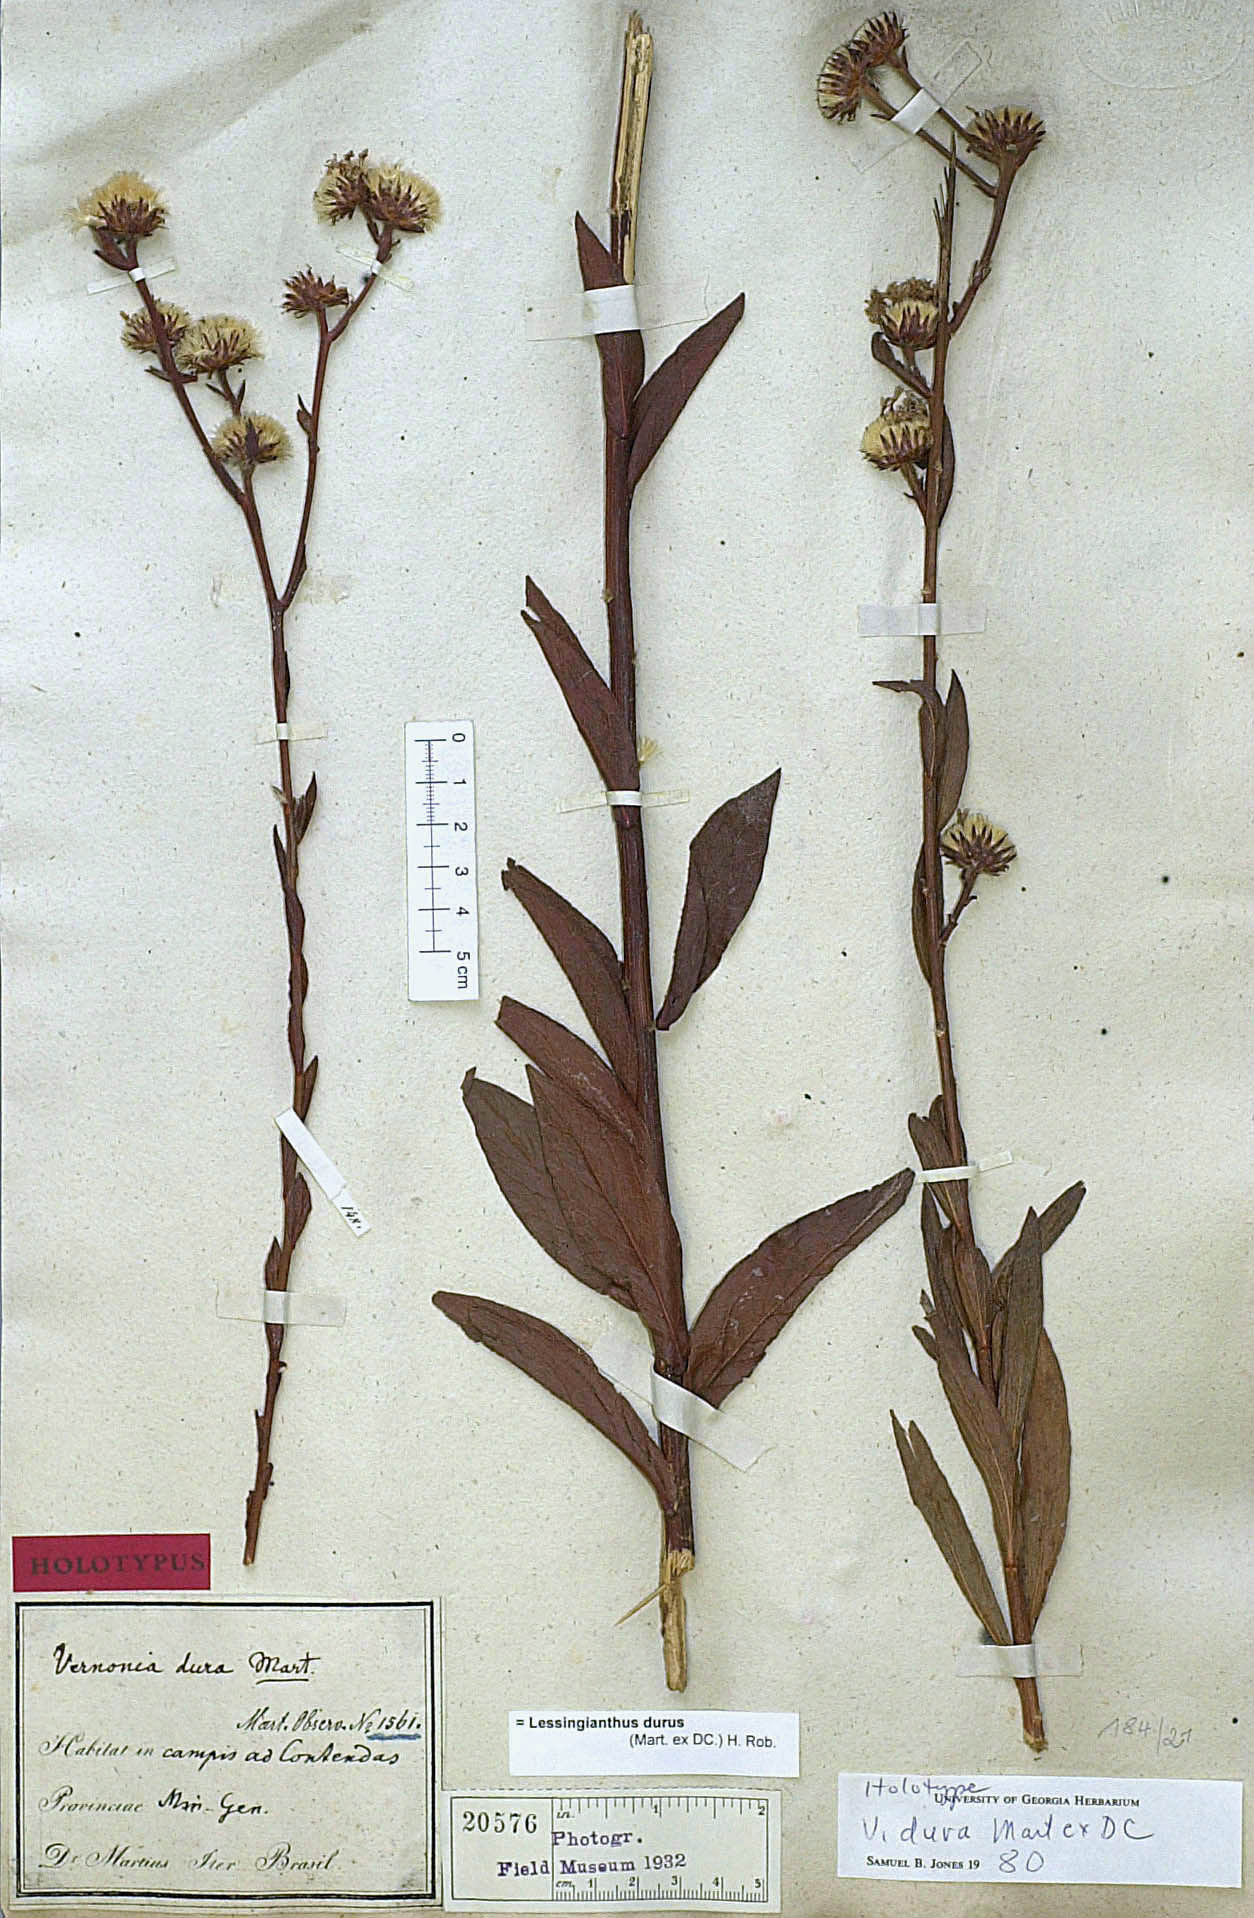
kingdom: Plantae
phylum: Tracheophyta
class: Magnoliopsida
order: Asterales
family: Asteraceae
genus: Lessingianthus
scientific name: Lessingianthus durus
